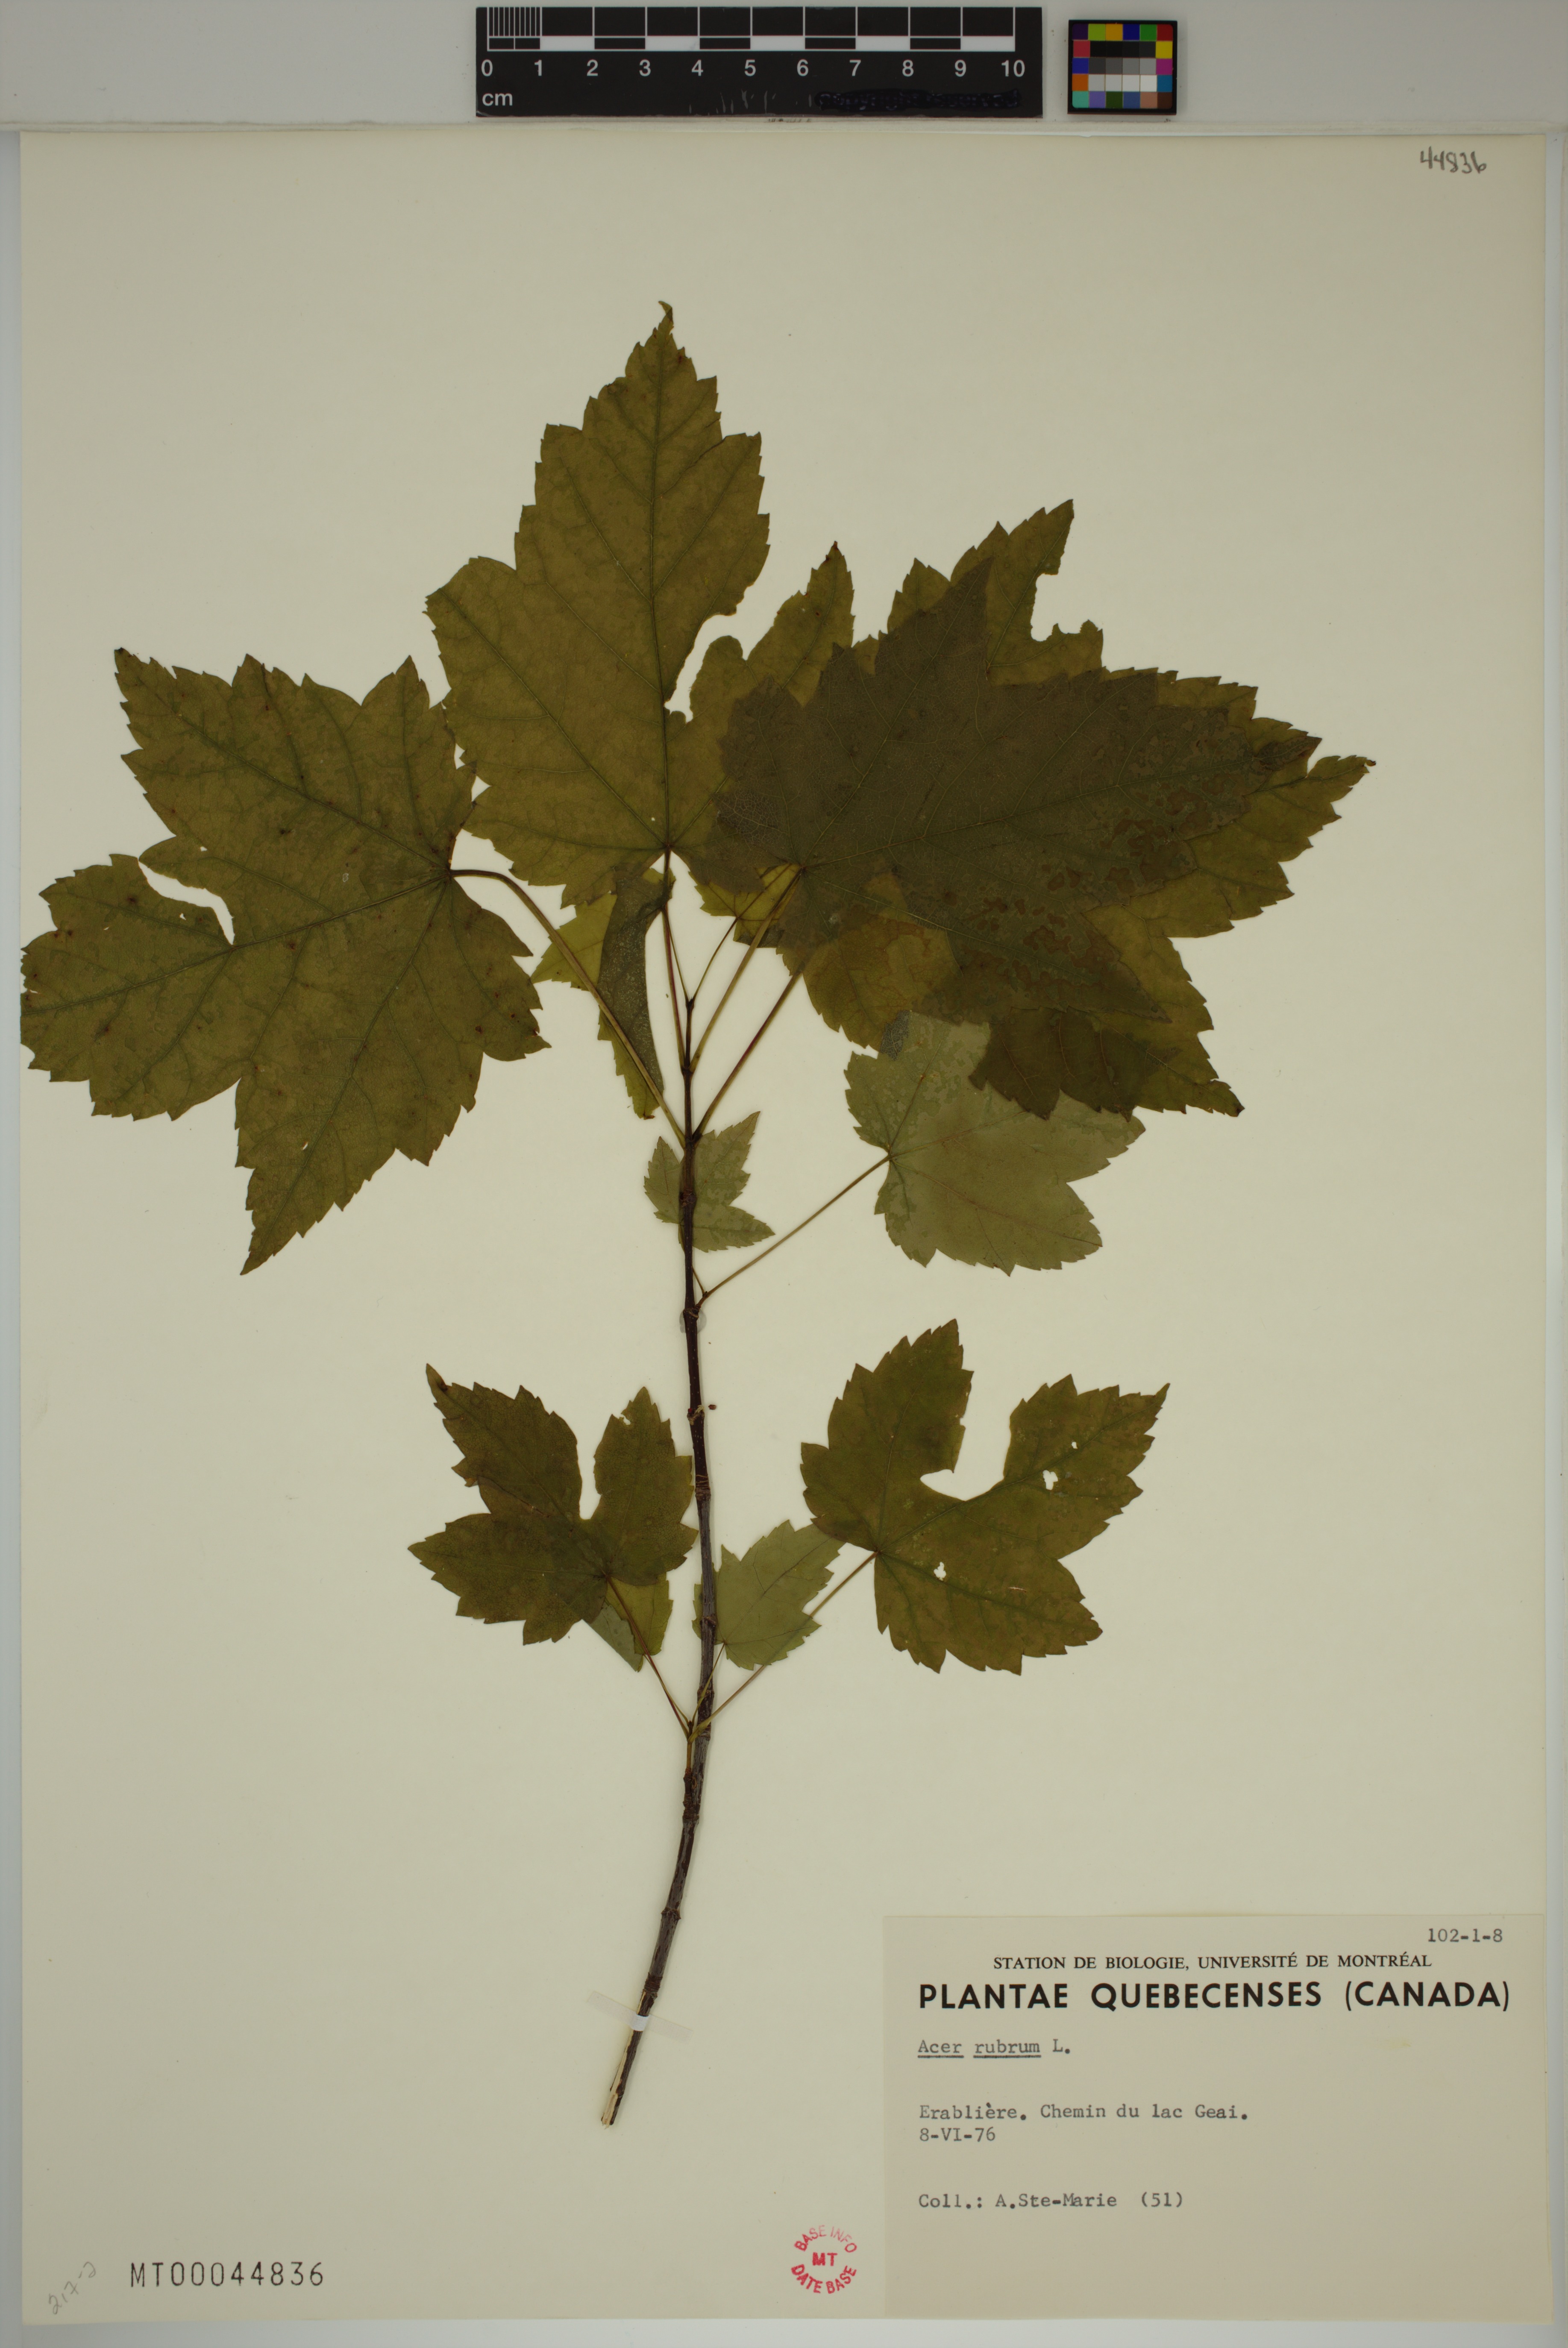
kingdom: Plantae
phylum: Tracheophyta
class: Magnoliopsida
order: Sapindales
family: Sapindaceae
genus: Acer
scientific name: Acer rubrum
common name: Red maple
